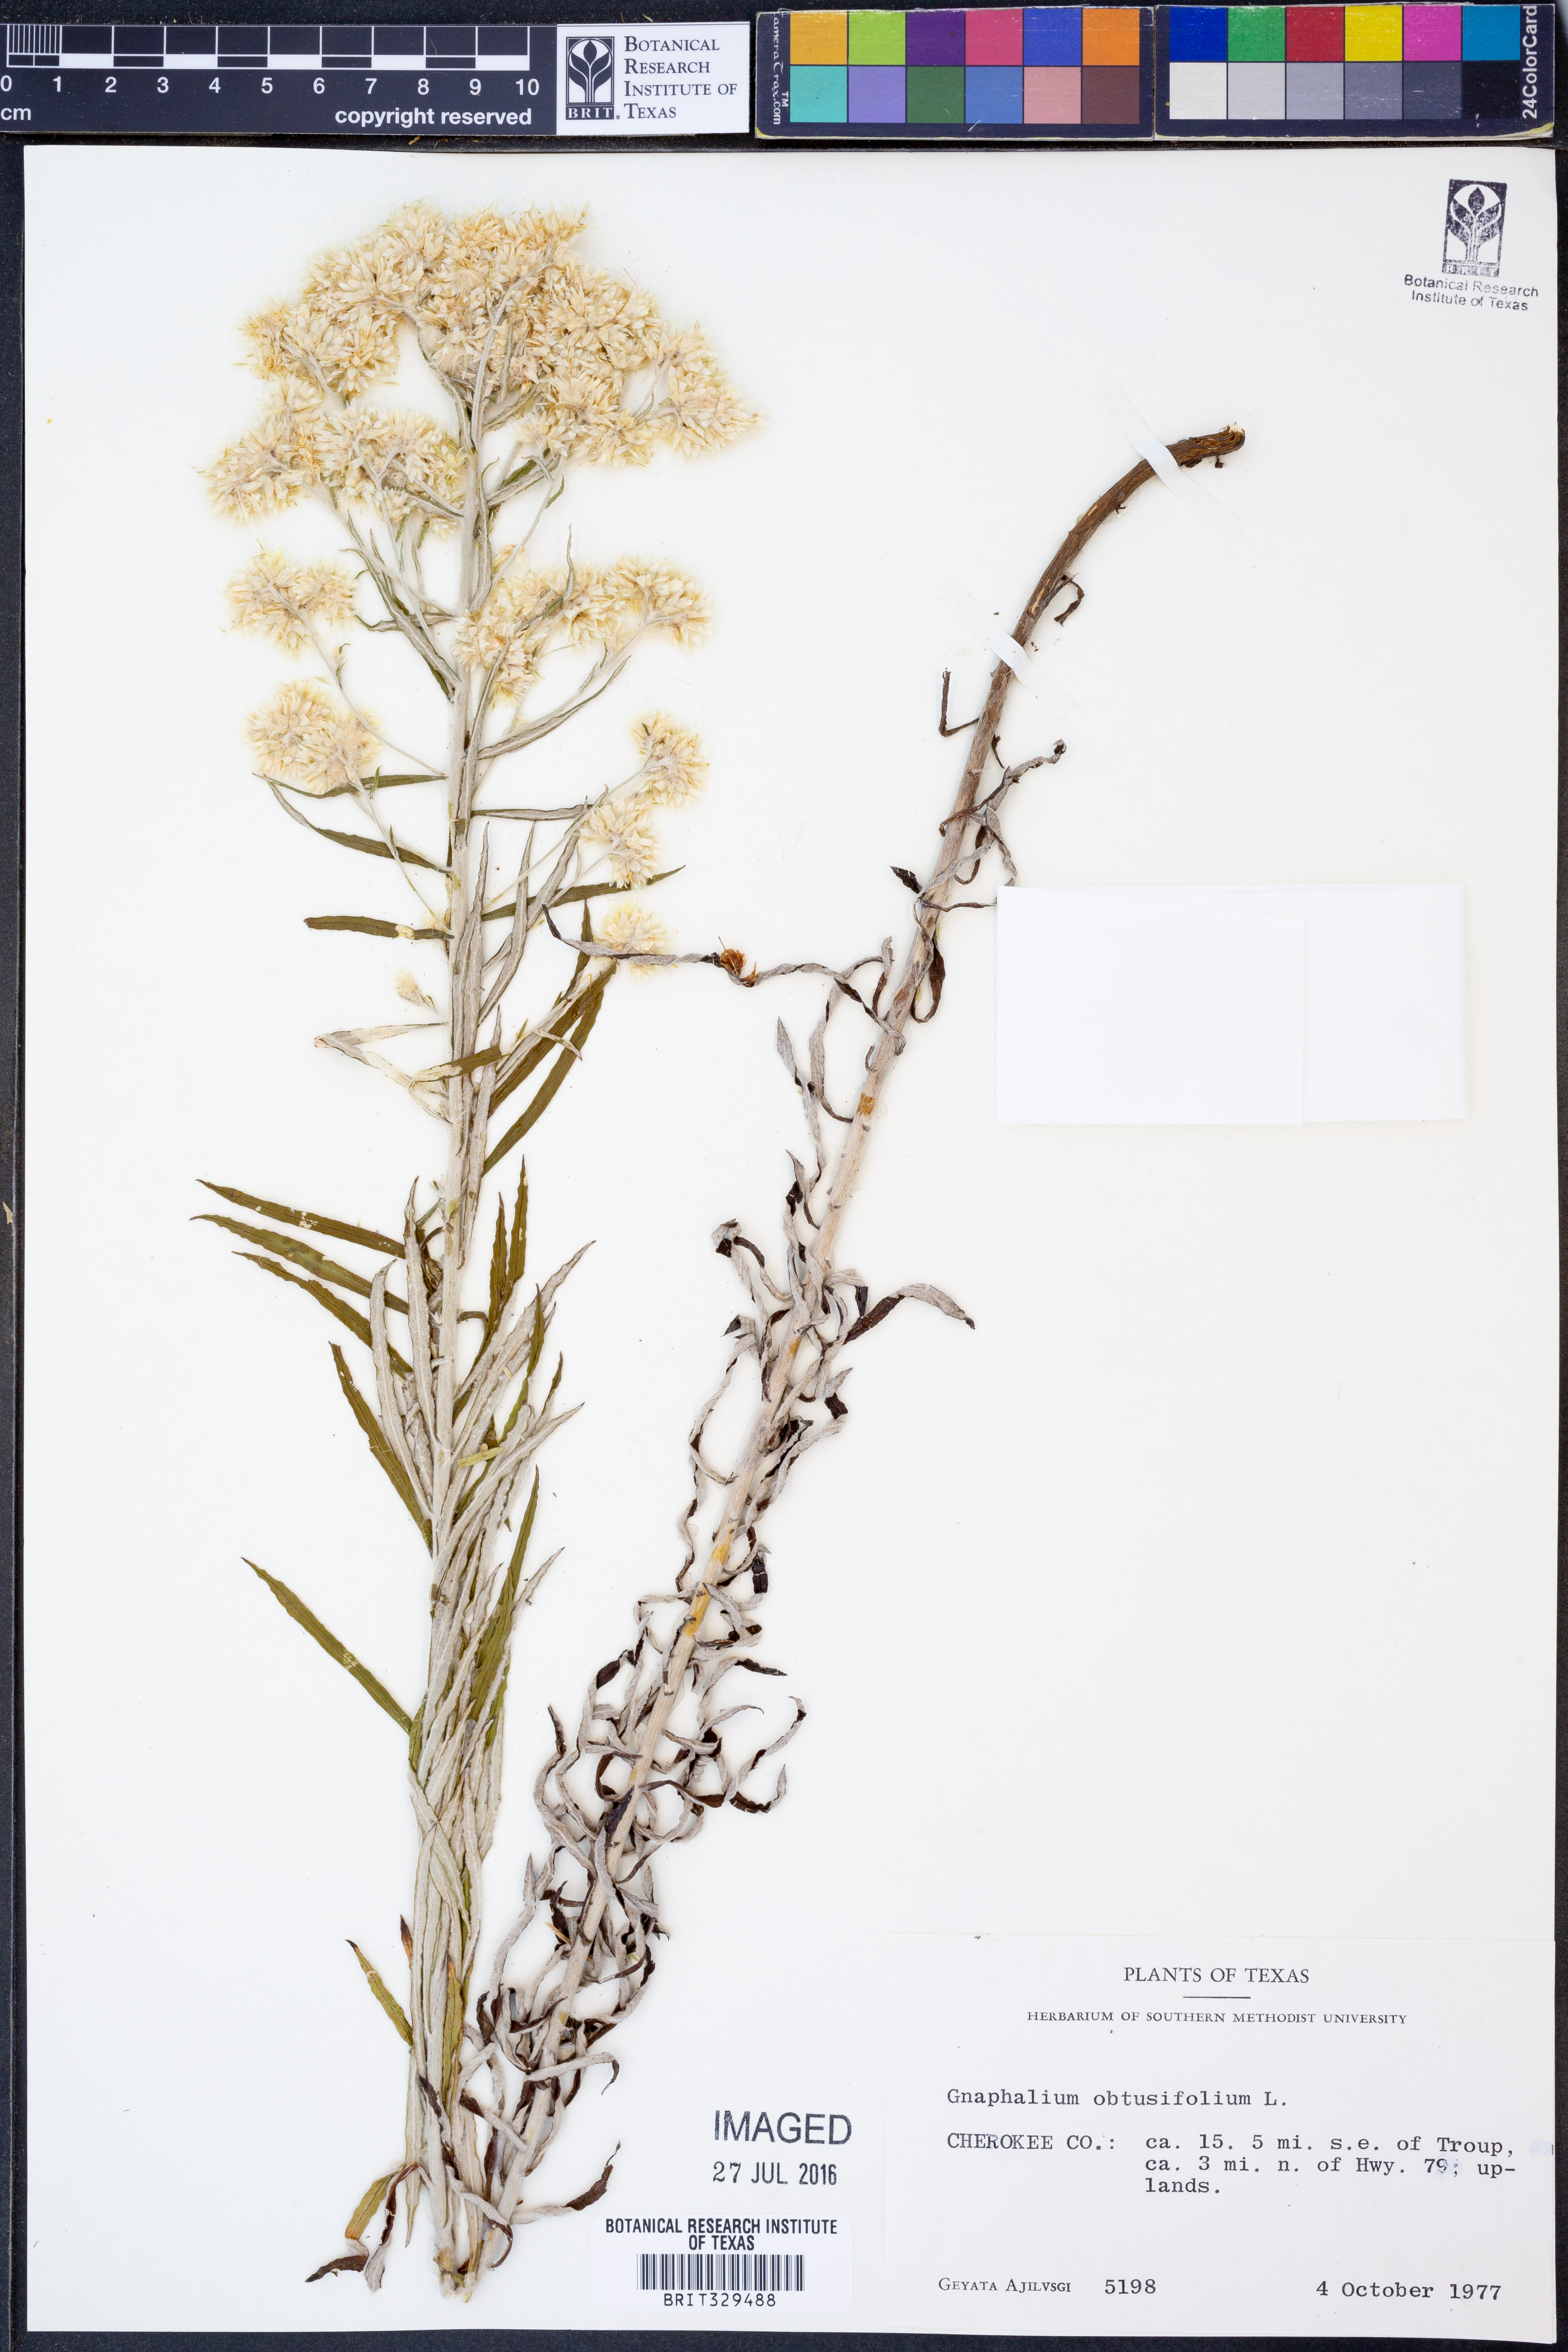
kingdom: Plantae
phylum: Tracheophyta
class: Magnoliopsida
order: Asterales
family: Asteraceae
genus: Pseudognaphalium
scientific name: Pseudognaphalium obtusifolium
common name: Eastern rabbit-tobacco
